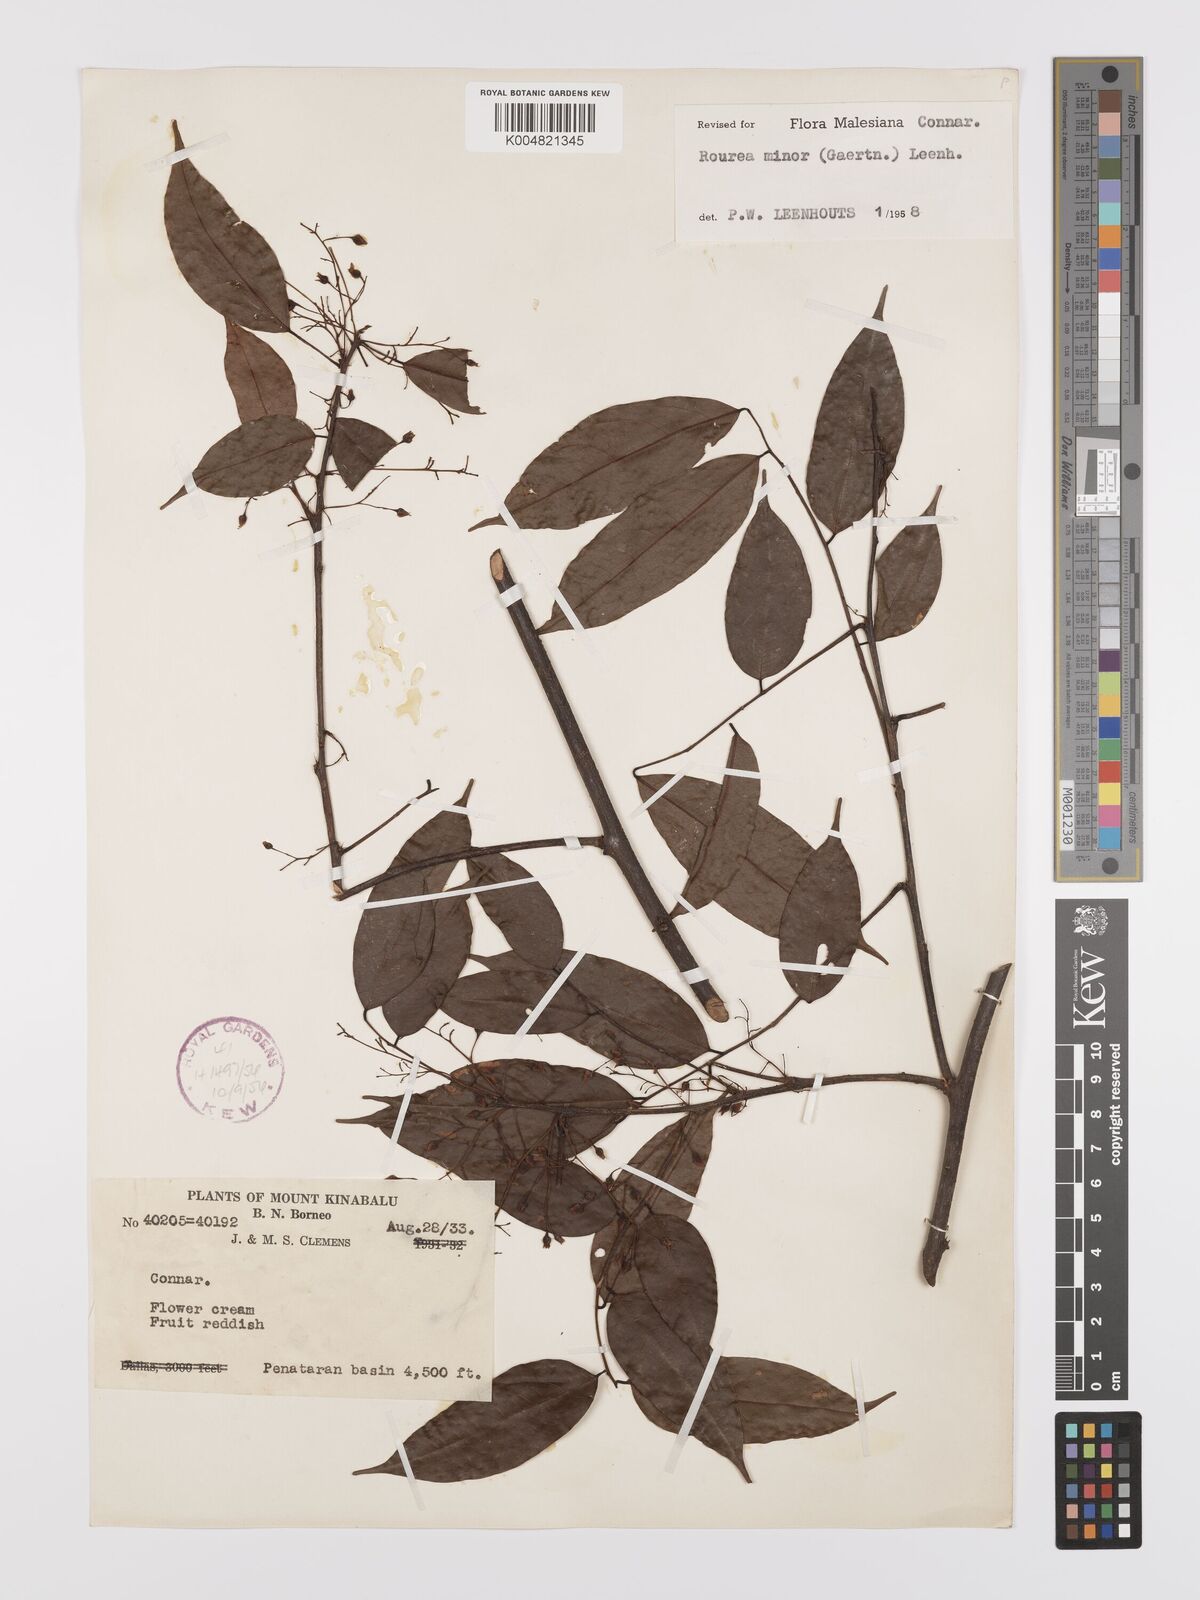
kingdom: Plantae
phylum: Tracheophyta
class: Magnoliopsida
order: Oxalidales
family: Connaraceae
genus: Rourea
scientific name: Rourea minor
